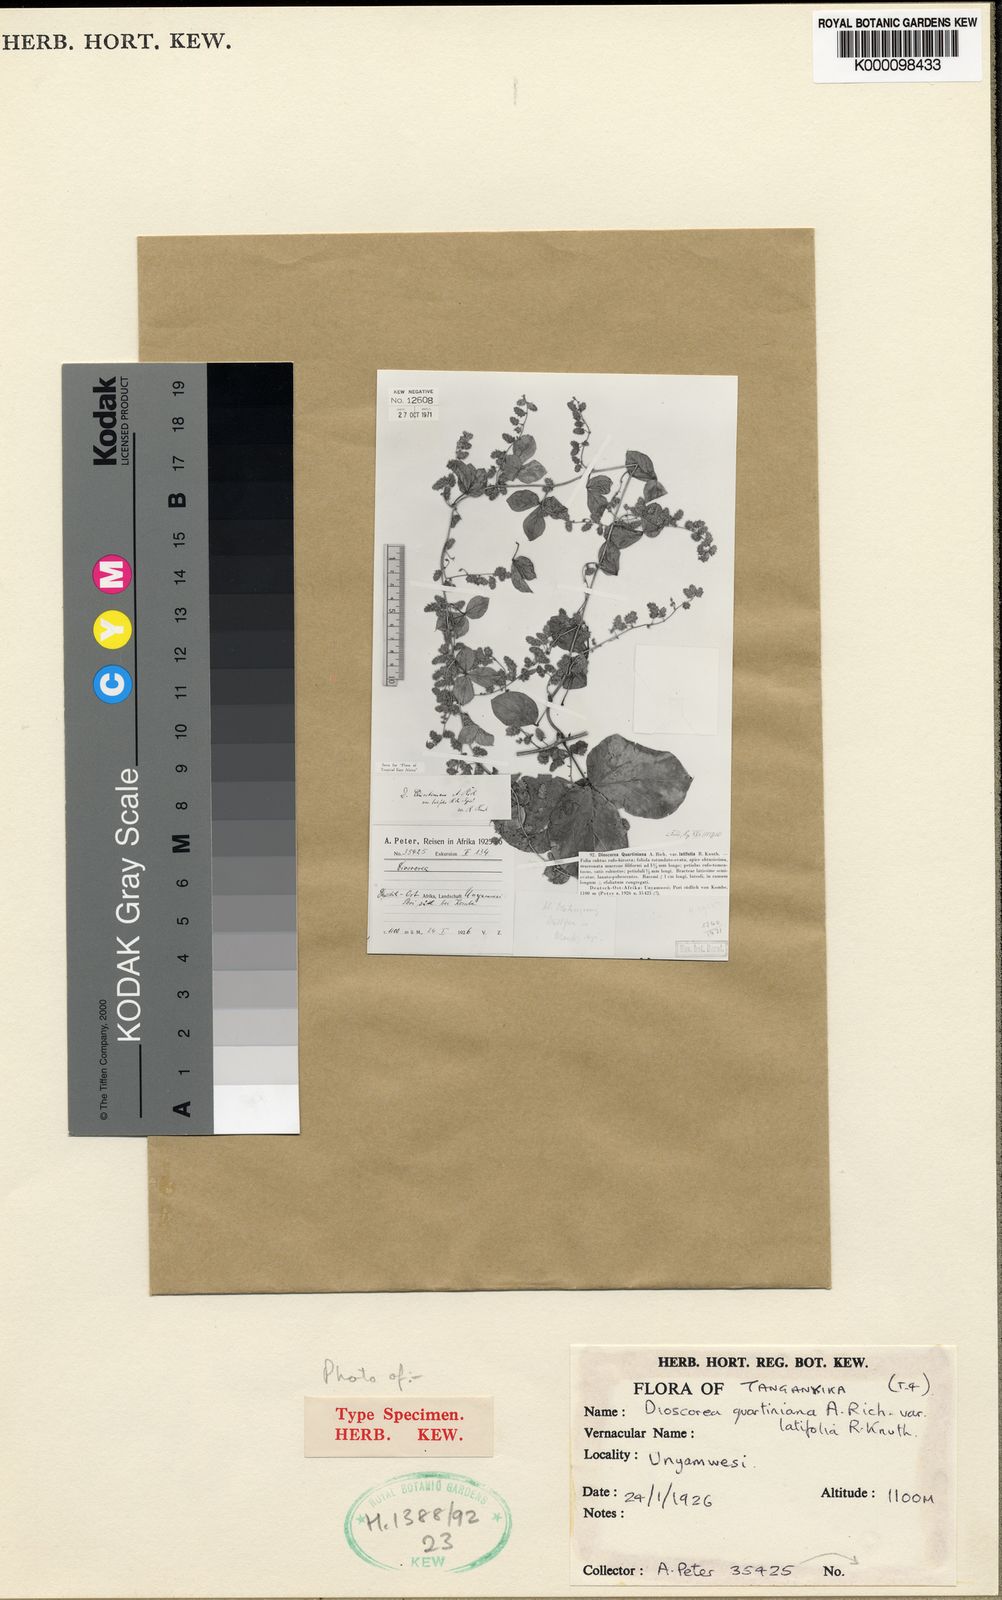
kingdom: Plantae
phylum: Tracheophyta
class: Liliopsida
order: Dioscoreales
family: Dioscoreaceae
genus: Dioscorea
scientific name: Dioscorea quartiniana
